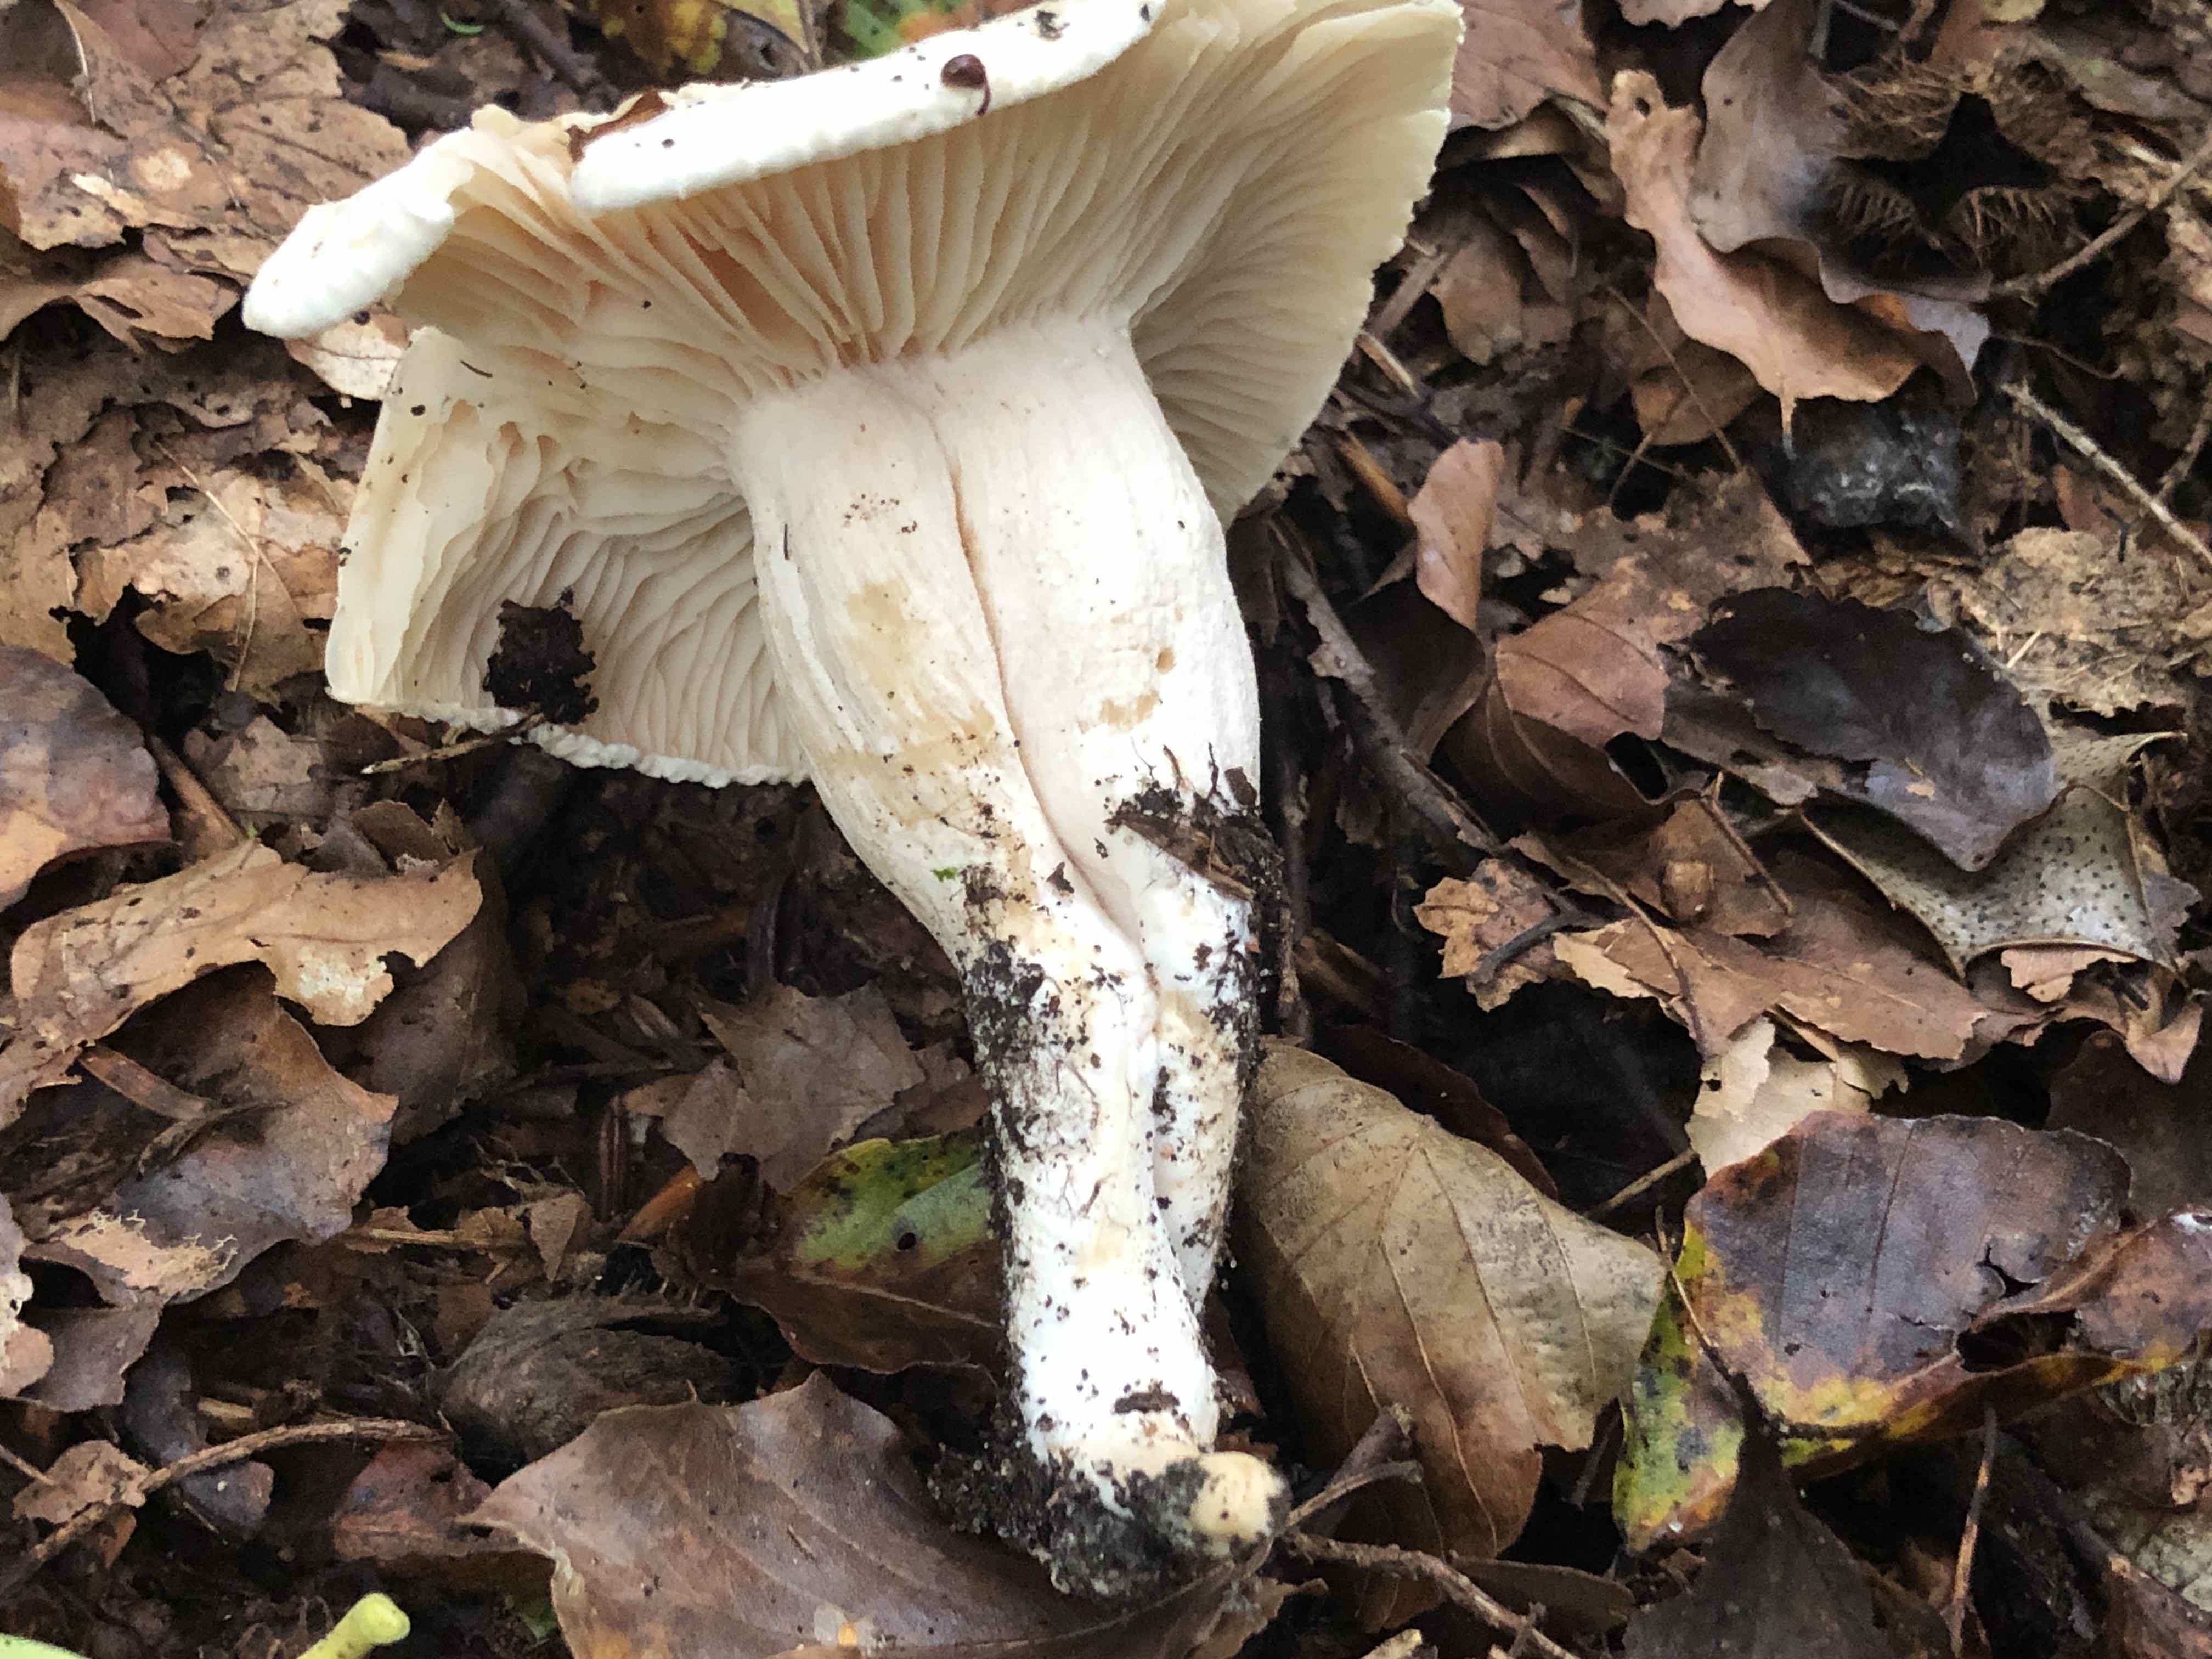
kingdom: Fungi
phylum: Basidiomycota
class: Agaricomycetes
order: Agaricales
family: Hygrophoraceae
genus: Hygrophorus
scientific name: Hygrophorus penarius
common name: spiselig sneglehat
